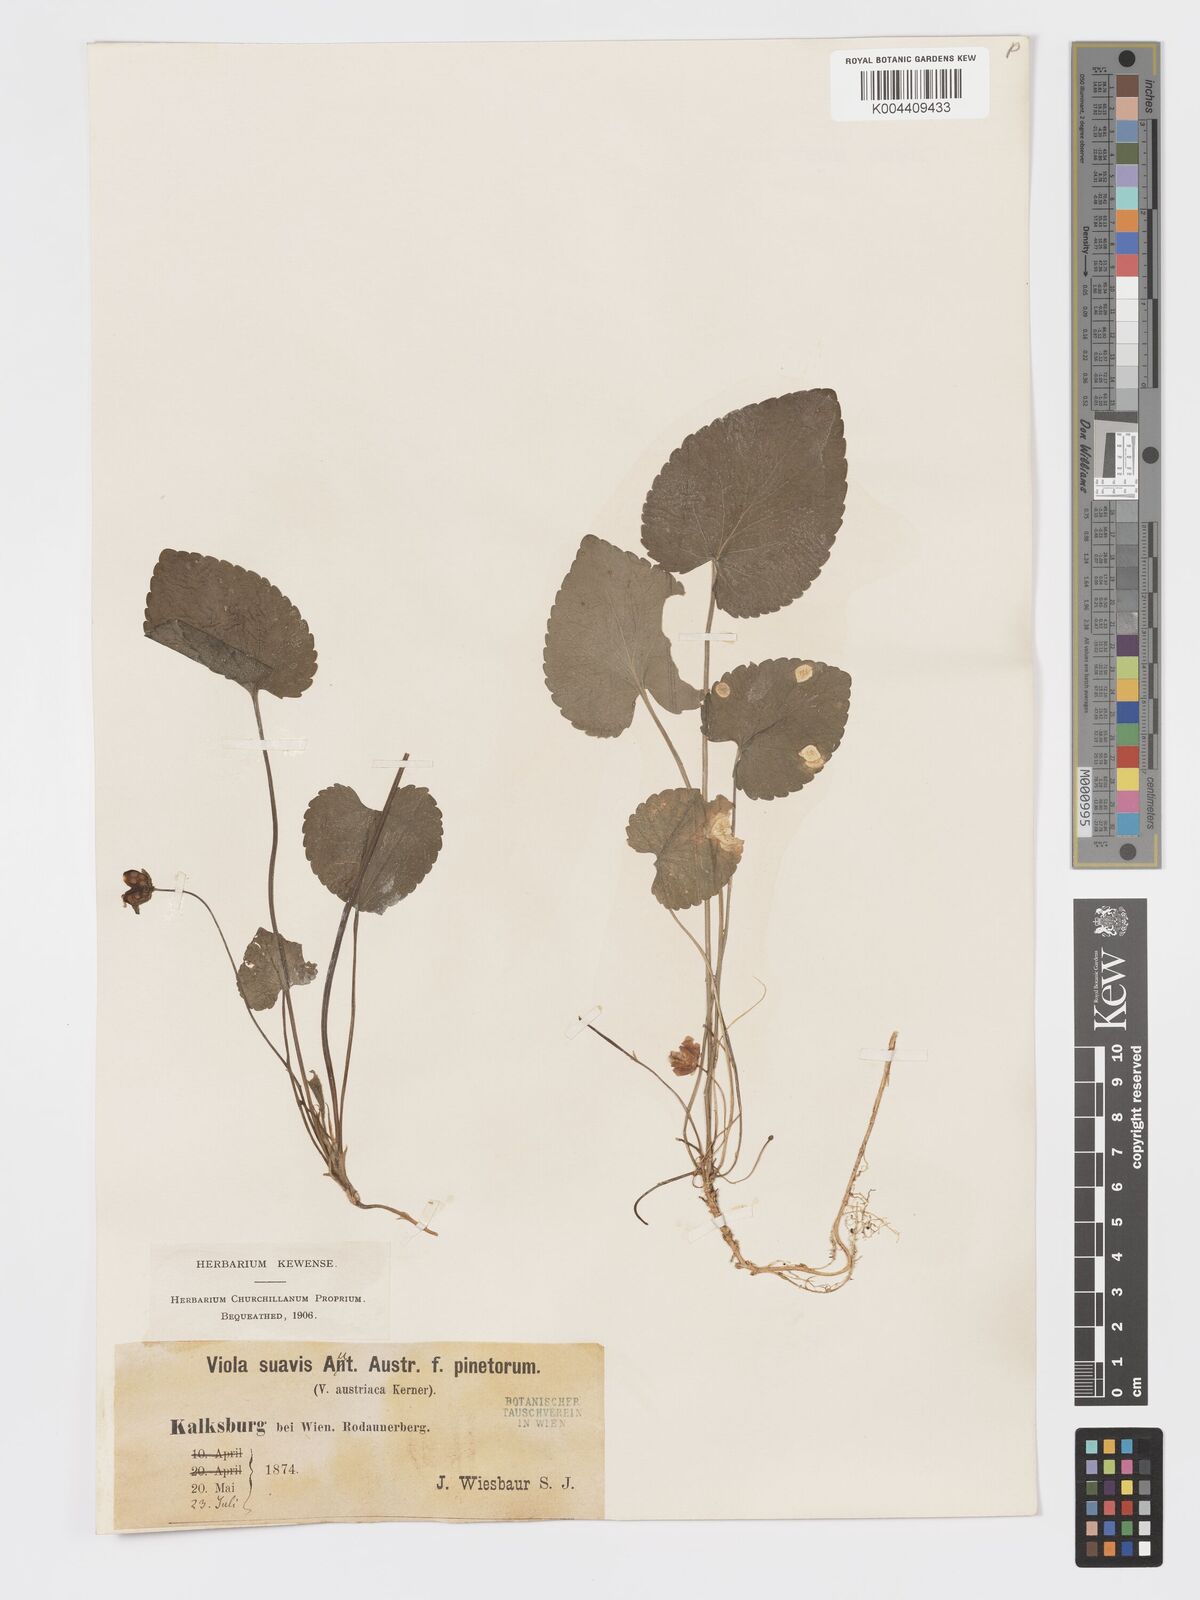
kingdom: Plantae
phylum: Tracheophyta
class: Magnoliopsida
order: Malpighiales
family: Violaceae
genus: Viola
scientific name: Viola kalksburgensis
